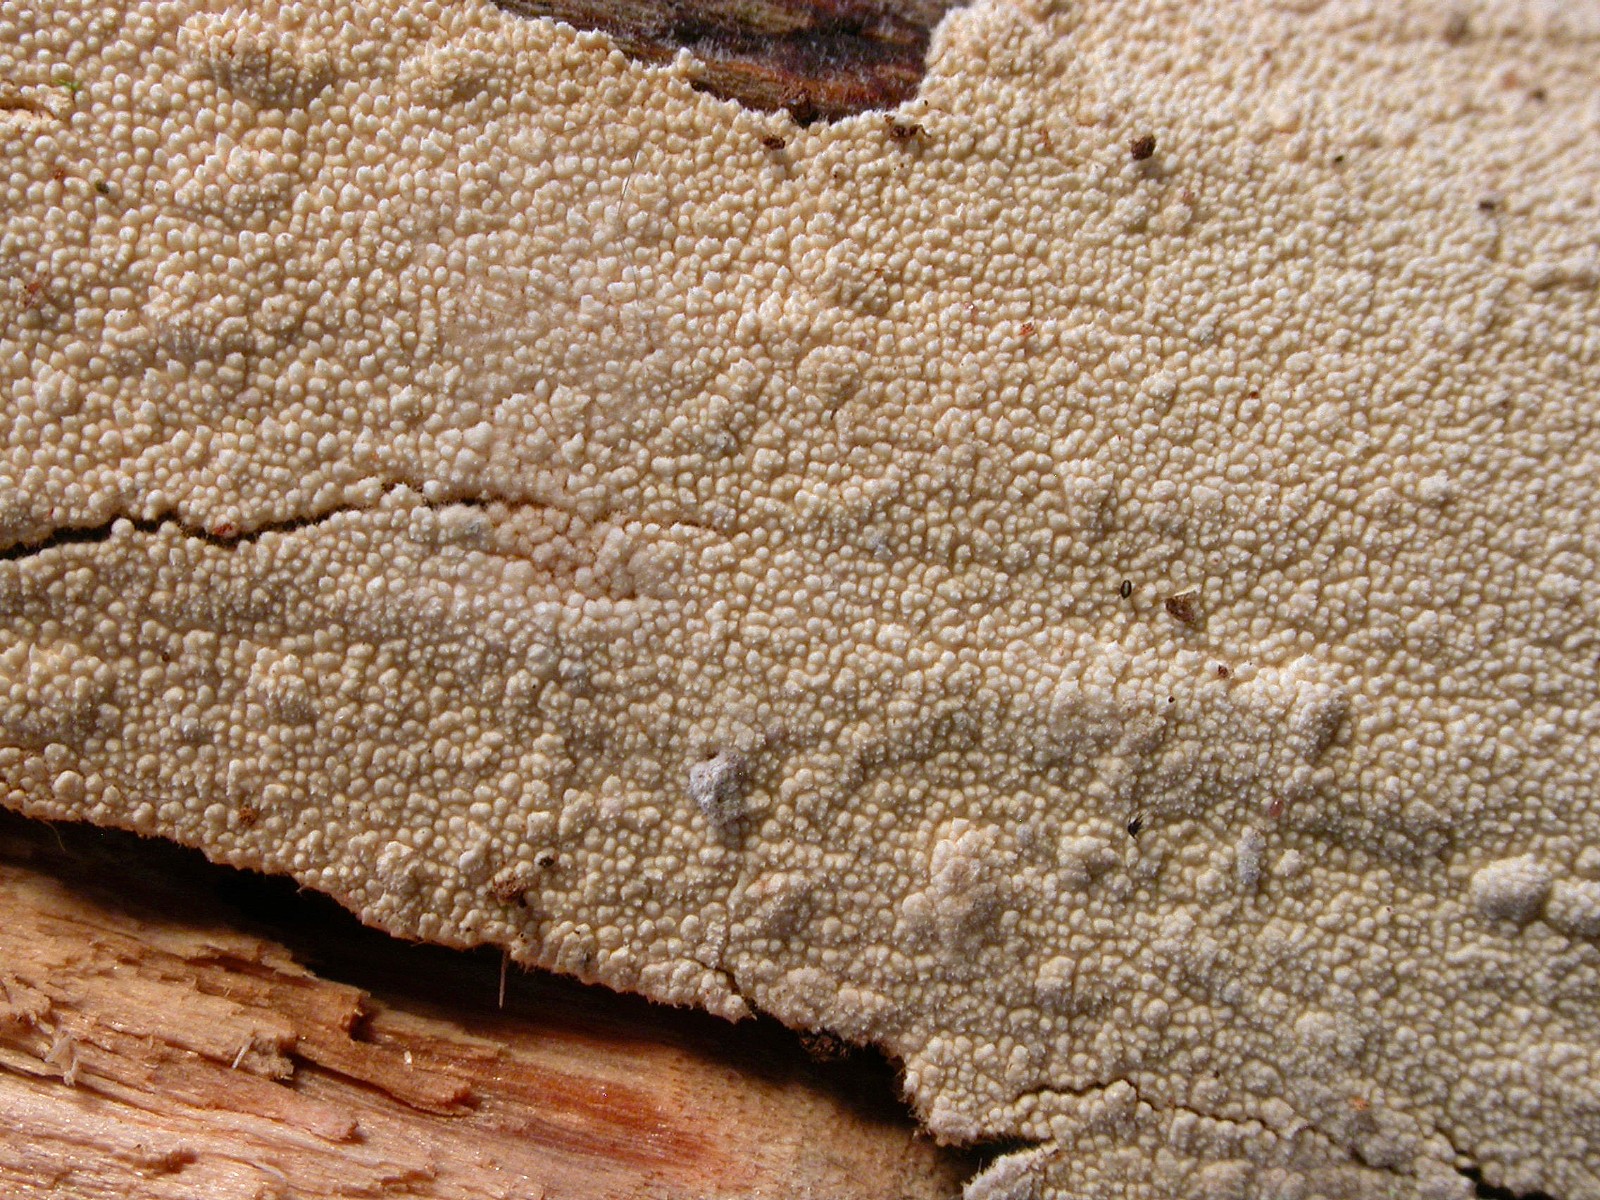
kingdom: Fungi
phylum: Basidiomycota
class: Agaricomycetes
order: Hymenochaetales
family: Schizoporaceae
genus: Xylodon
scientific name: Xylodon brevisetus
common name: tætvortet tandsvamp
